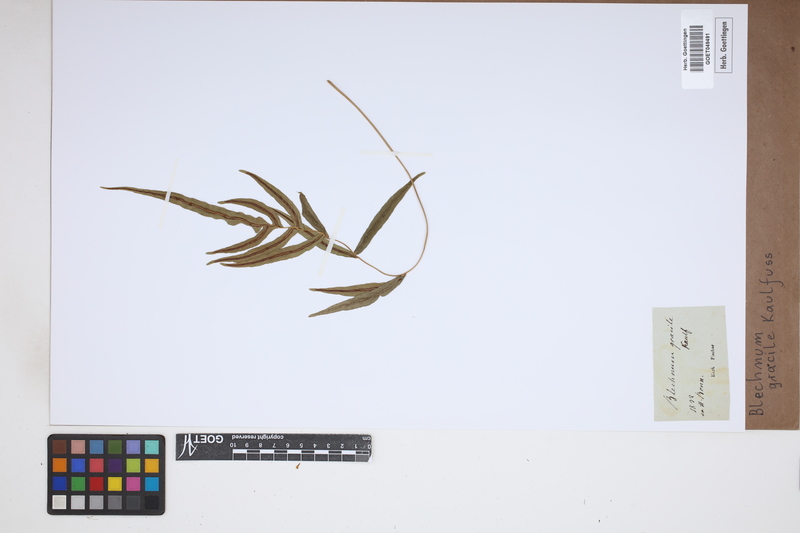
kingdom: Plantae
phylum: Tracheophyta
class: Polypodiopsida
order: Polypodiales
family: Blechnaceae
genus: Blechnum
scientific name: Blechnum gracile
